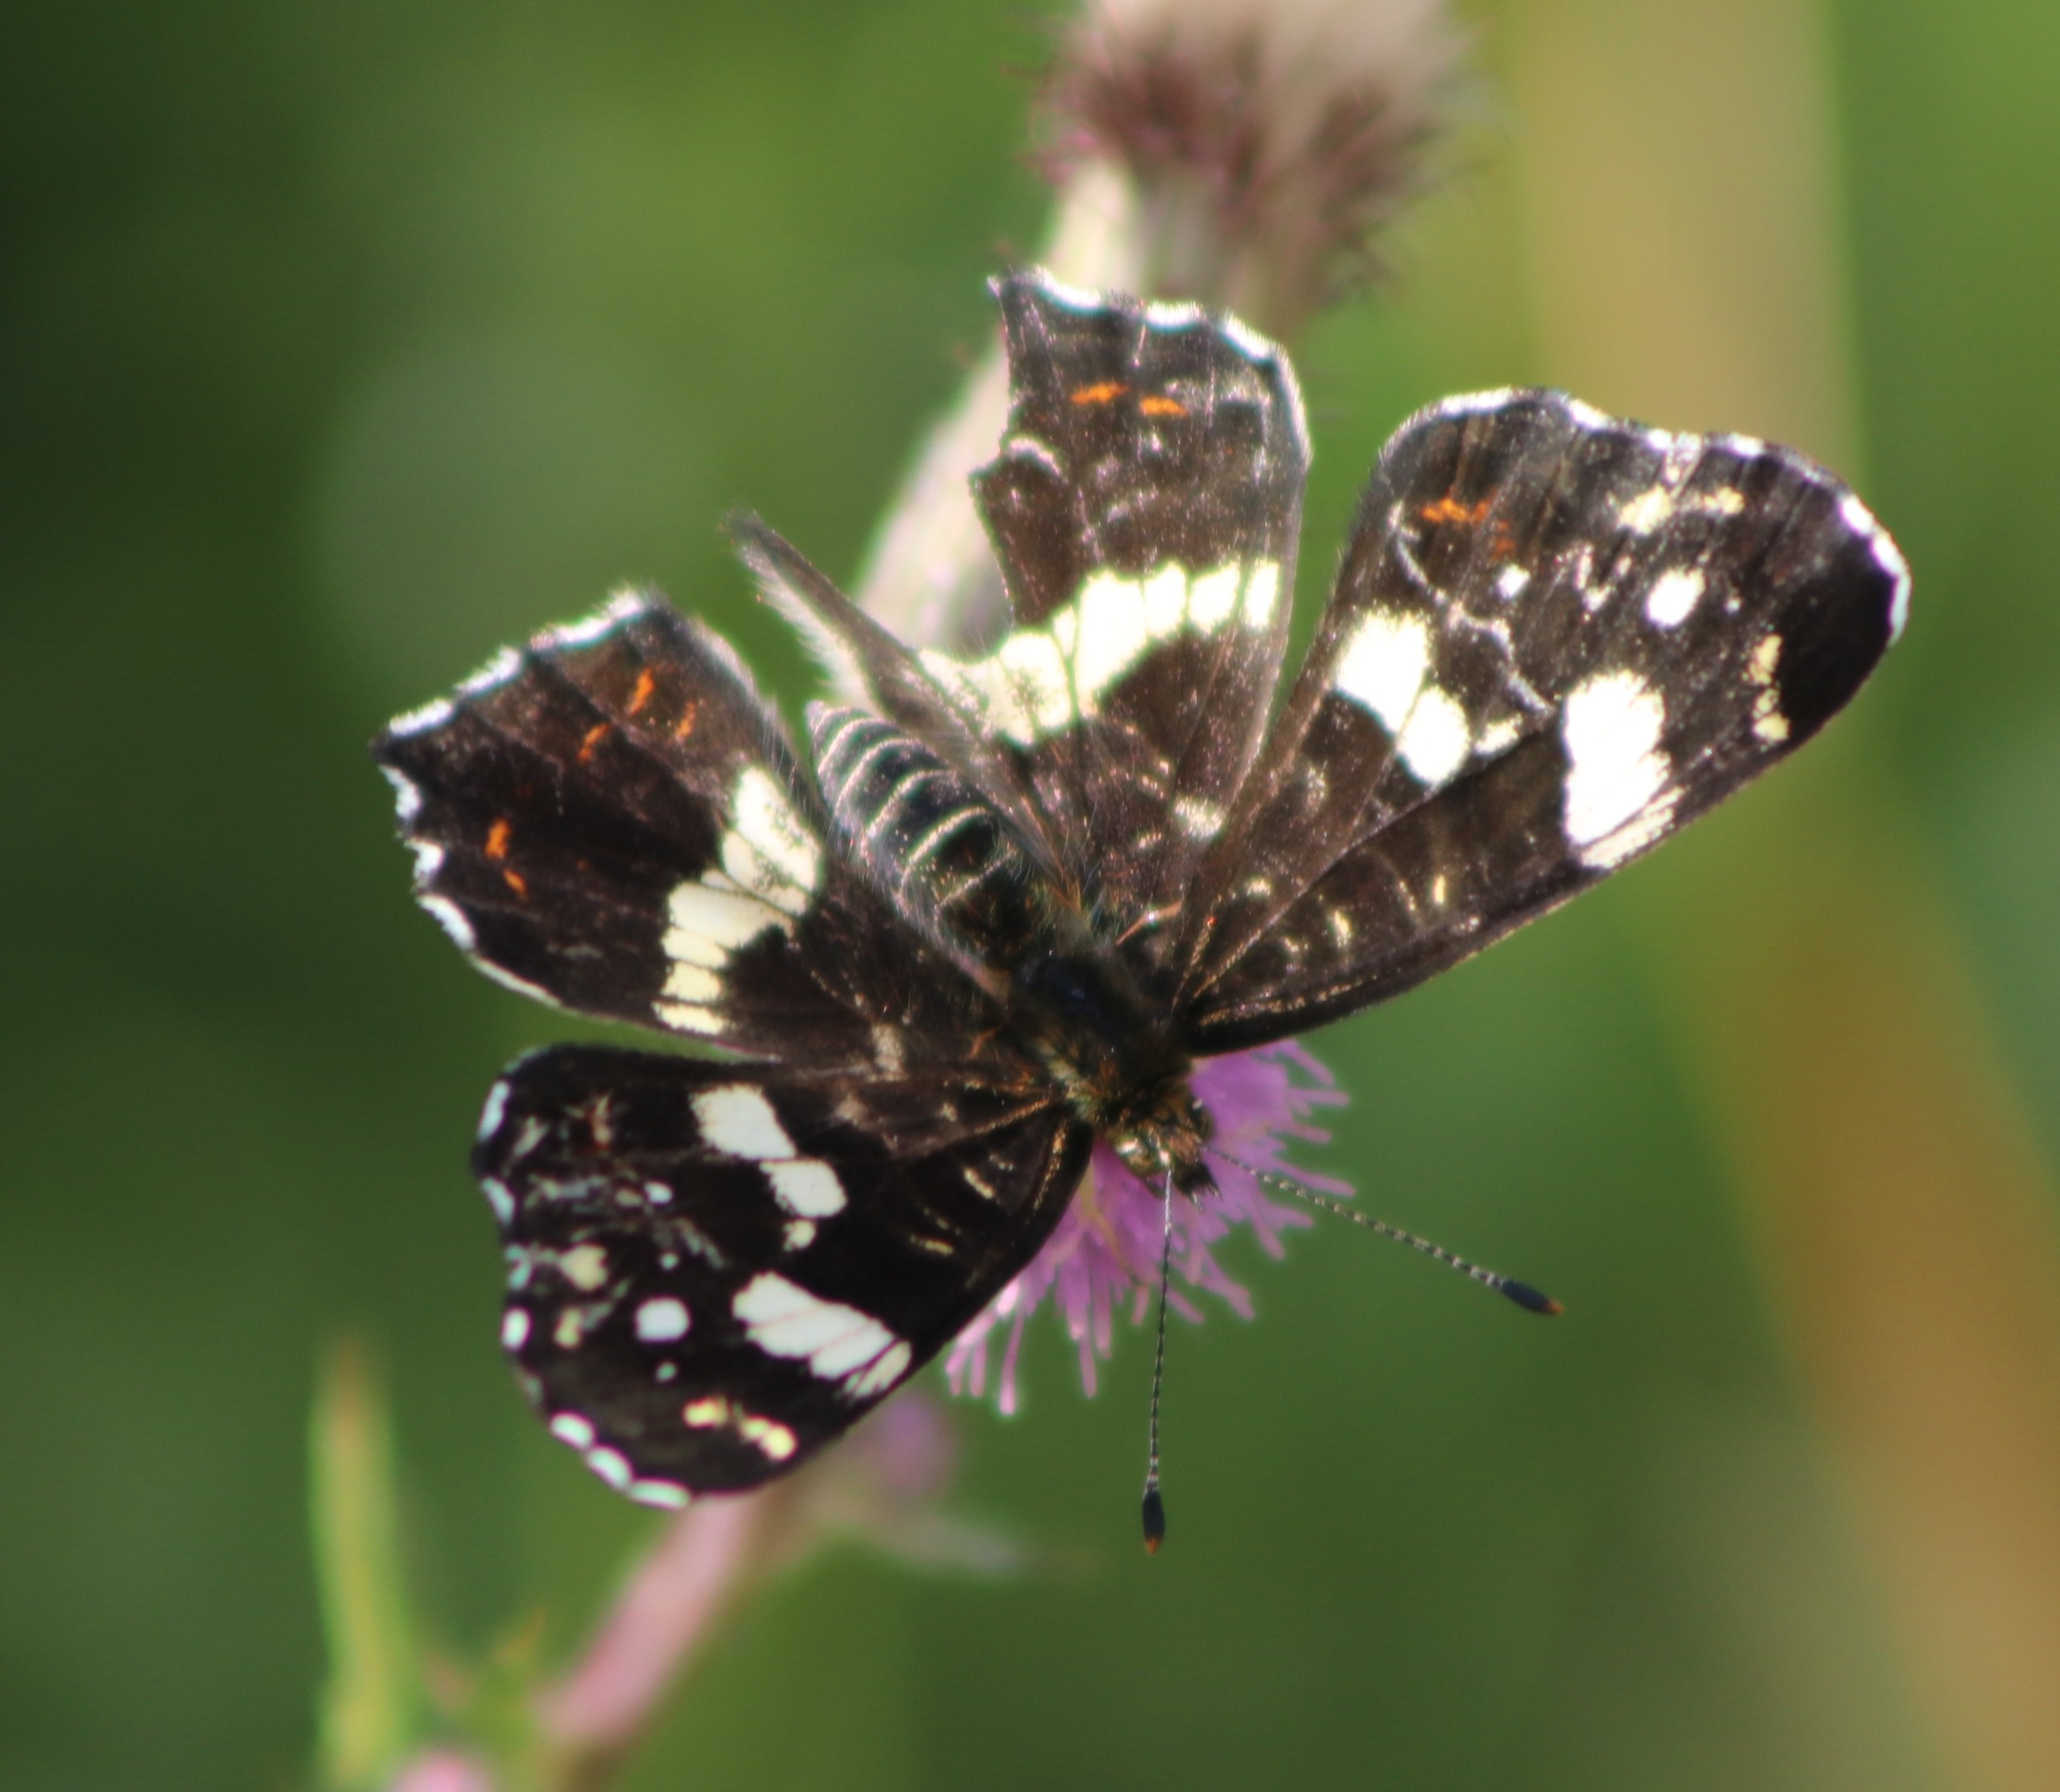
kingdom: Animalia
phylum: Arthropoda
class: Insecta
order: Lepidoptera
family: Nymphalidae
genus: Araschnia
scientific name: Araschnia levana
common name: Nældesommerfugl
